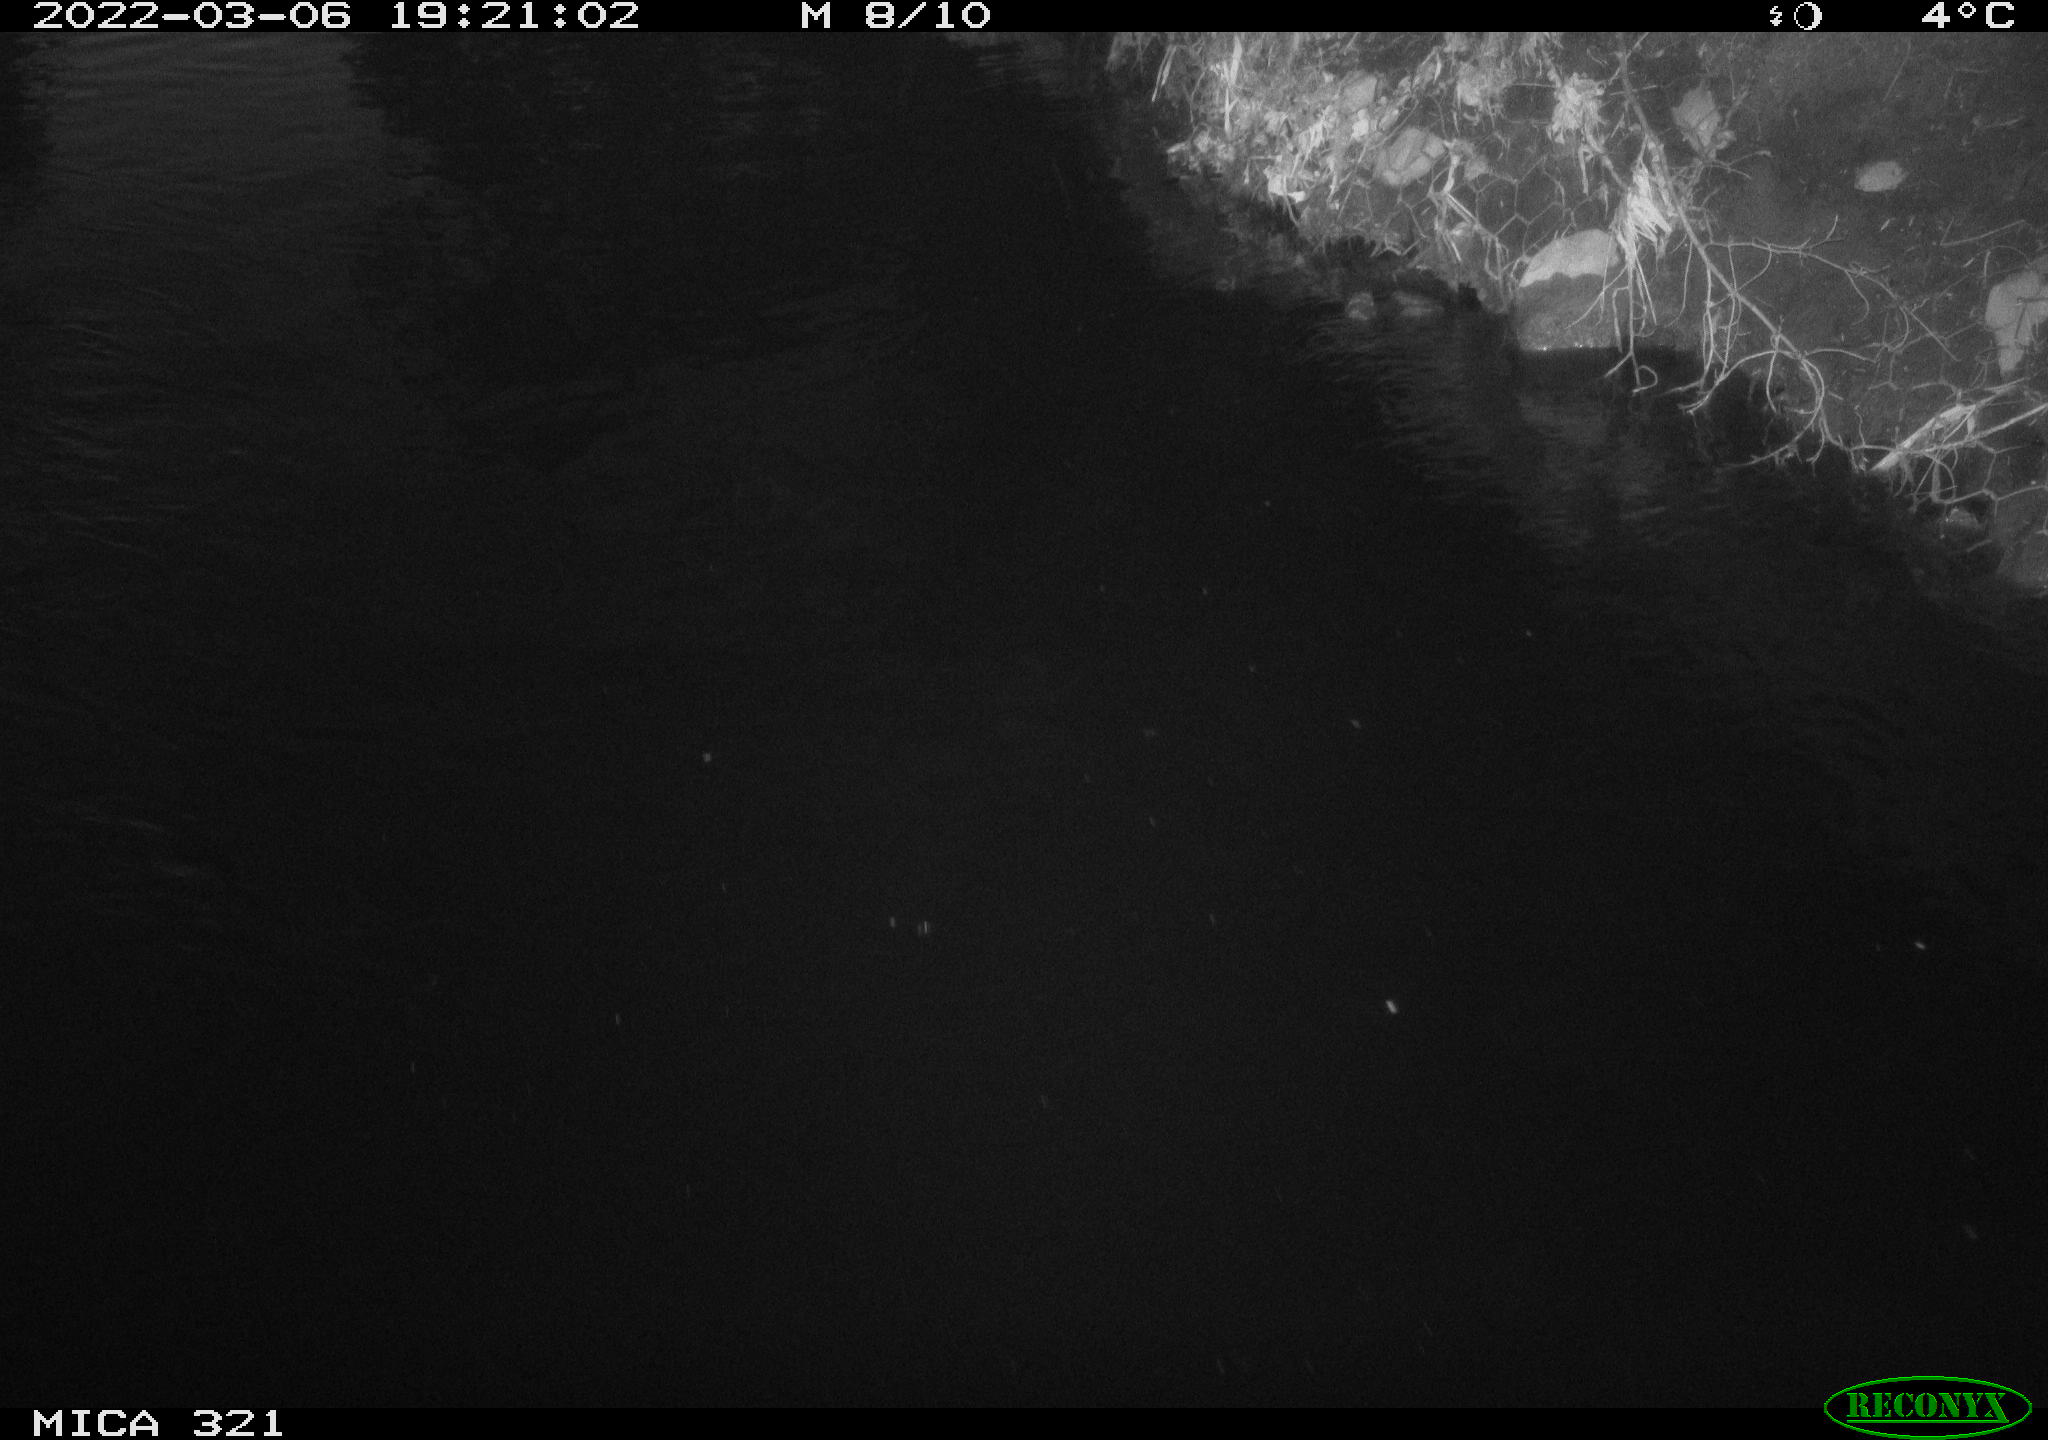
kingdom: Animalia
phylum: Chordata
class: Aves
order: Anseriformes
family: Anatidae
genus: Anas
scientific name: Anas platyrhynchos
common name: Mallard
